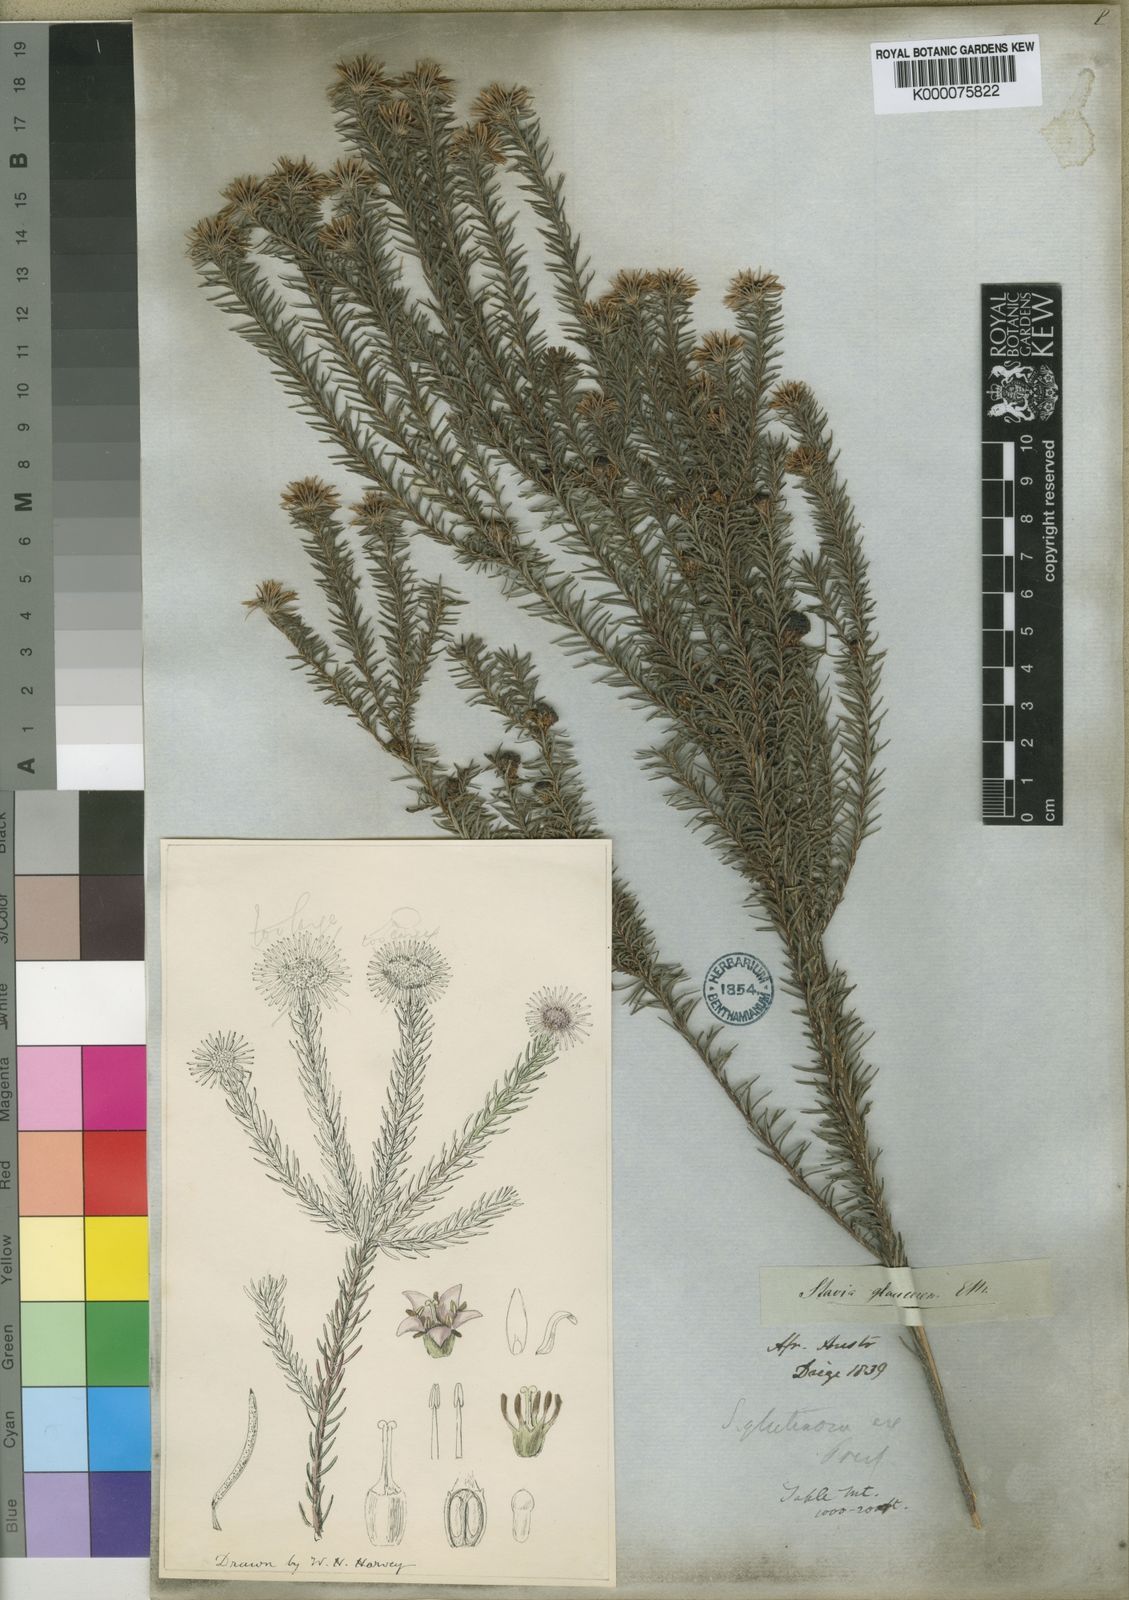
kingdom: Plantae
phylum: Tracheophyta
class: Magnoliopsida
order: Bruniales
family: Bruniaceae
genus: Staavia
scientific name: Staavia glutinosa
